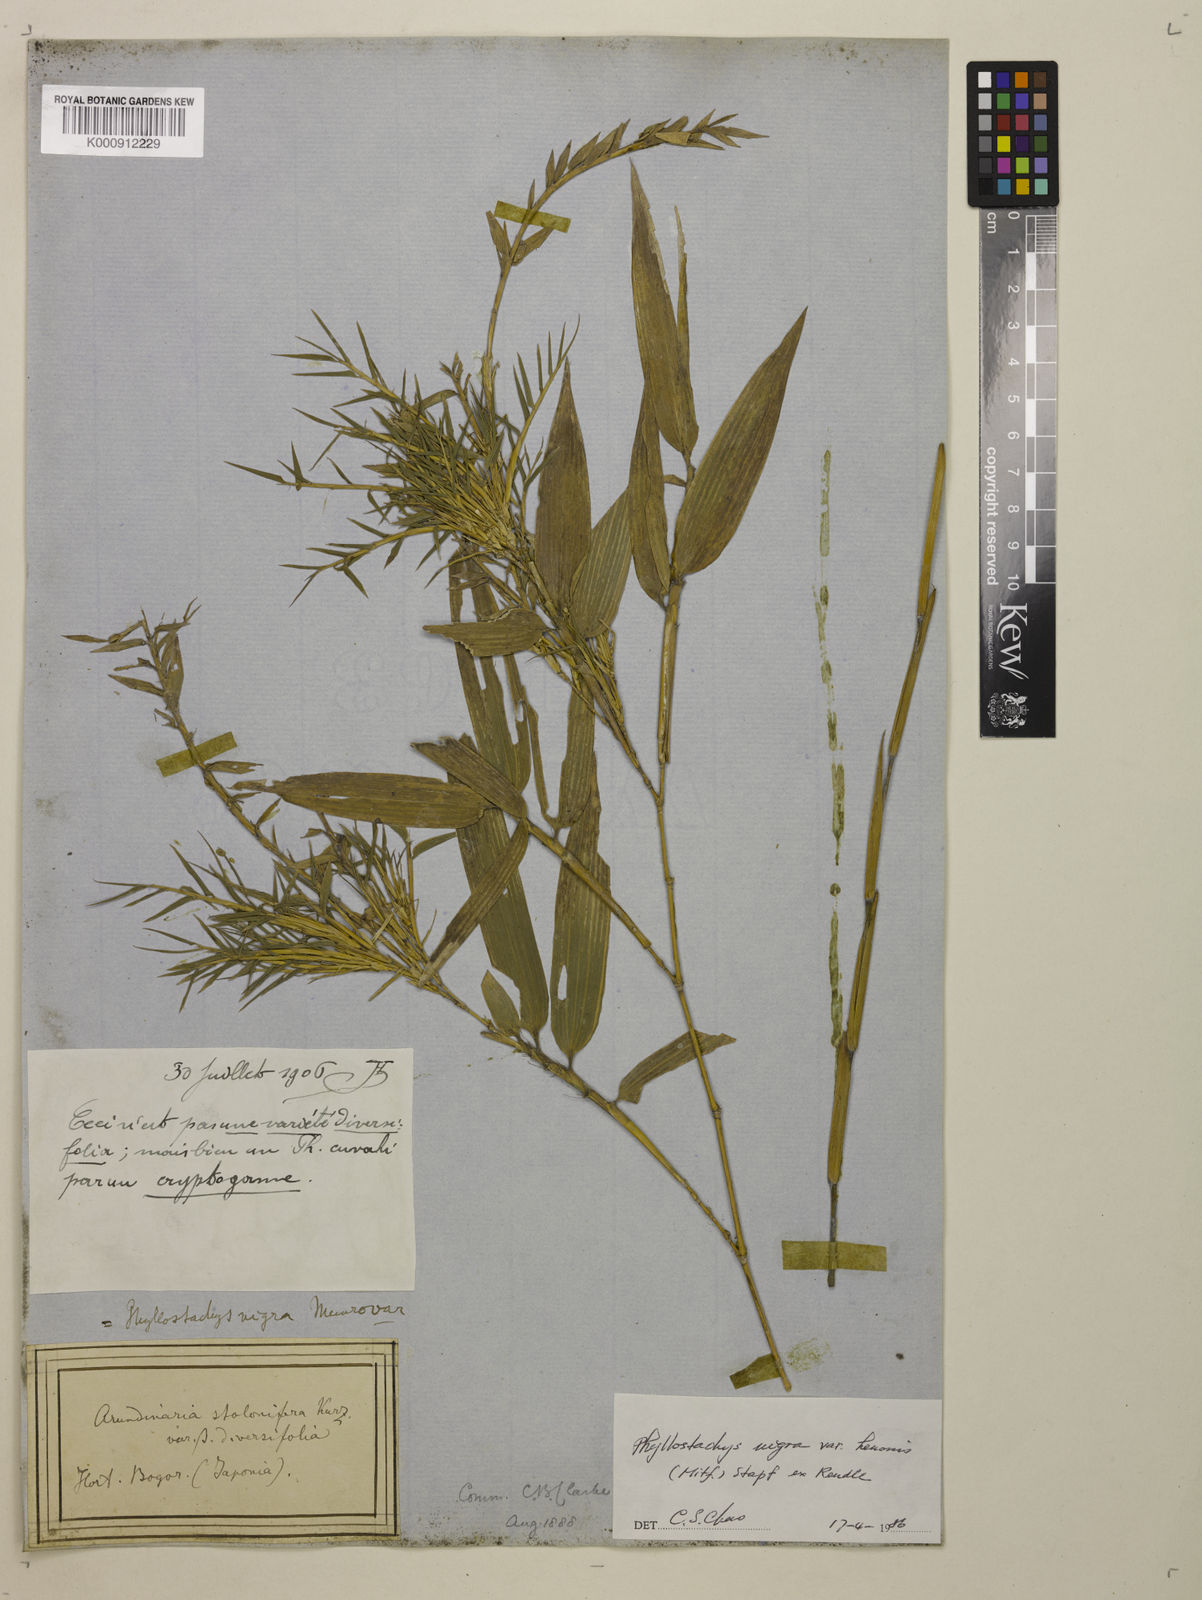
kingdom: Plantae
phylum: Tracheophyta
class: Liliopsida
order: Poales
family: Poaceae
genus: Phyllostachys
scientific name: Phyllostachys nigra
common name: Black bamboo
